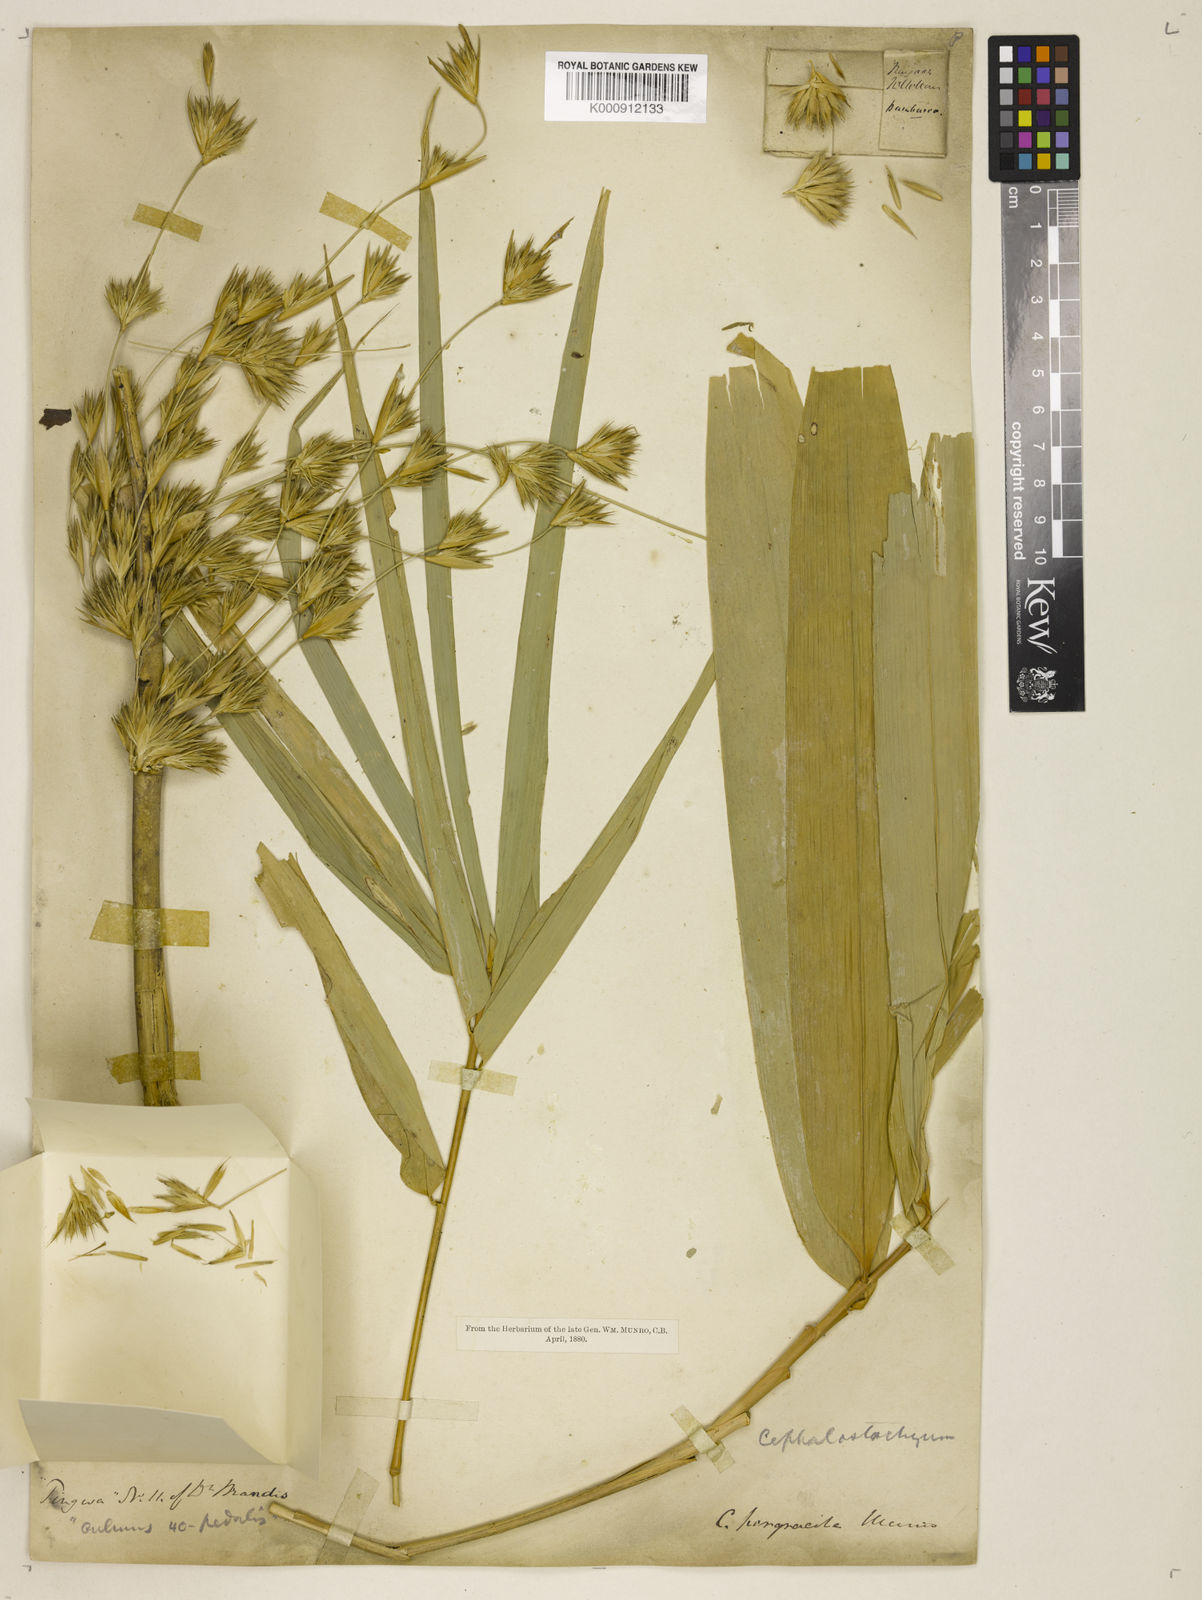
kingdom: Plantae
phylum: Tracheophyta
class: Liliopsida
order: Poales
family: Poaceae
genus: Schizostachyum
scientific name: Schizostachyum pergracile
